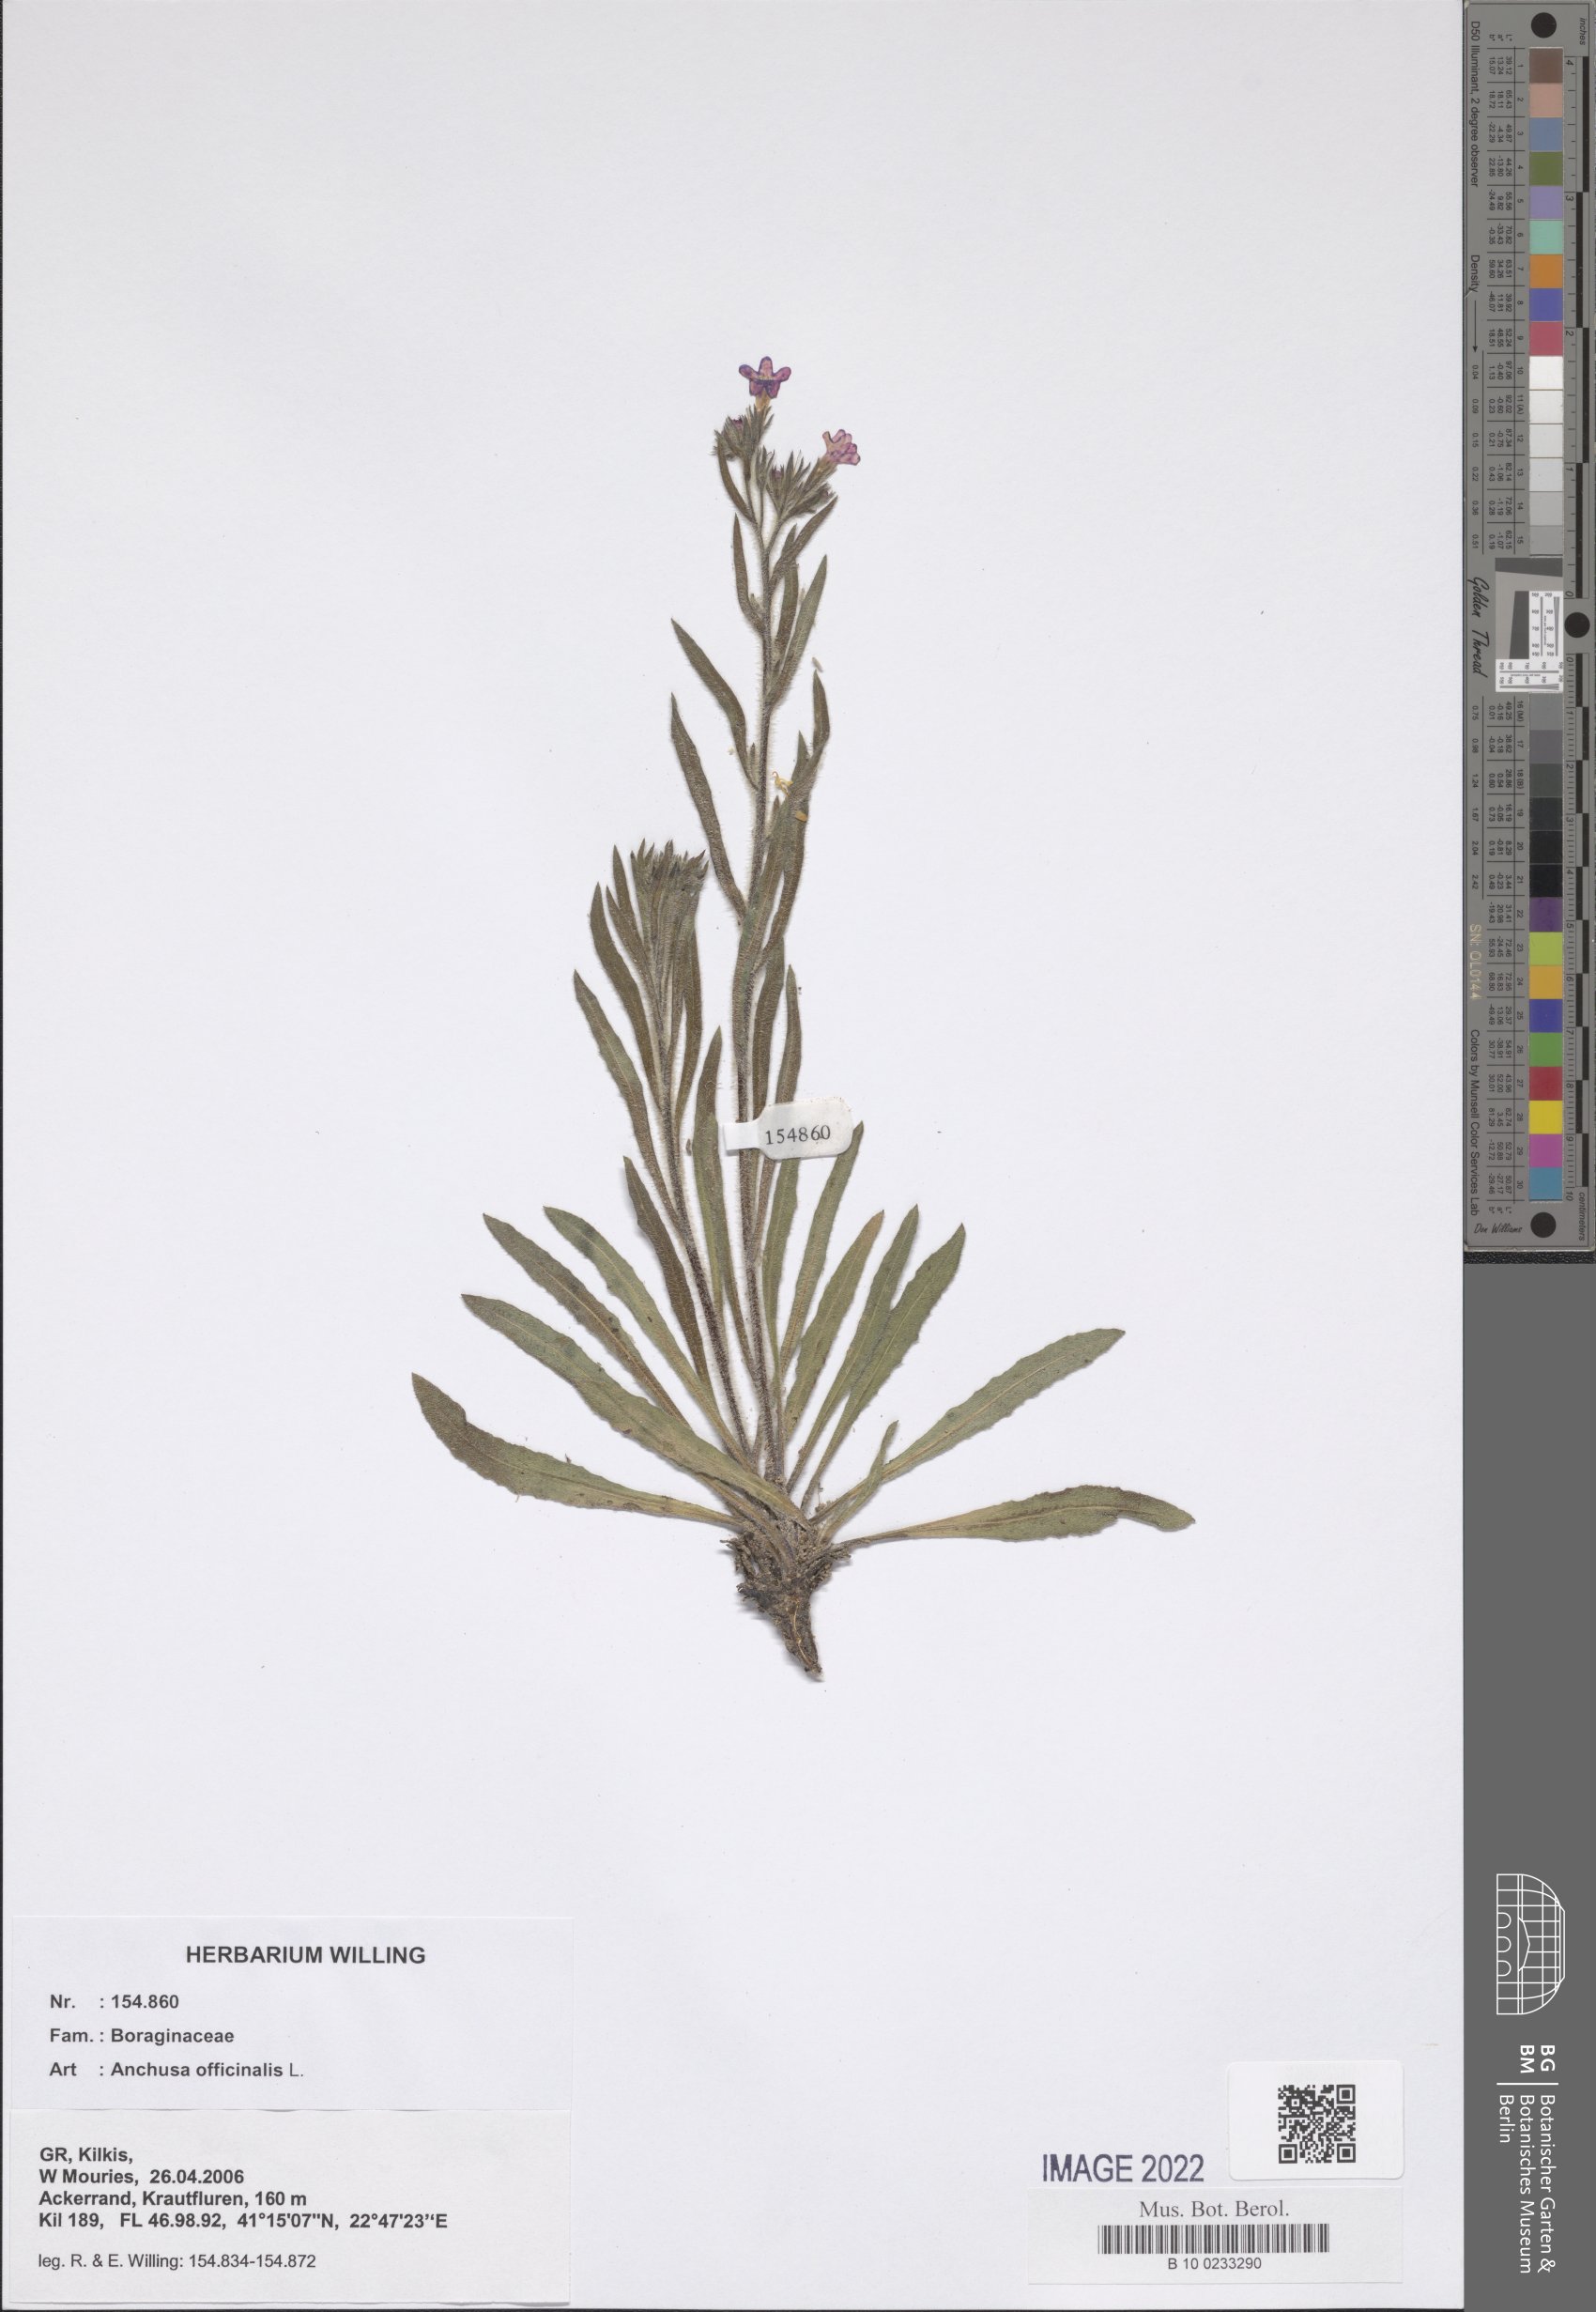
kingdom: Plantae
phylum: Tracheophyta
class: Magnoliopsida
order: Boraginales
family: Boraginaceae
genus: Anchusa
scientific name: Anchusa officinalis
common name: Alkanet
